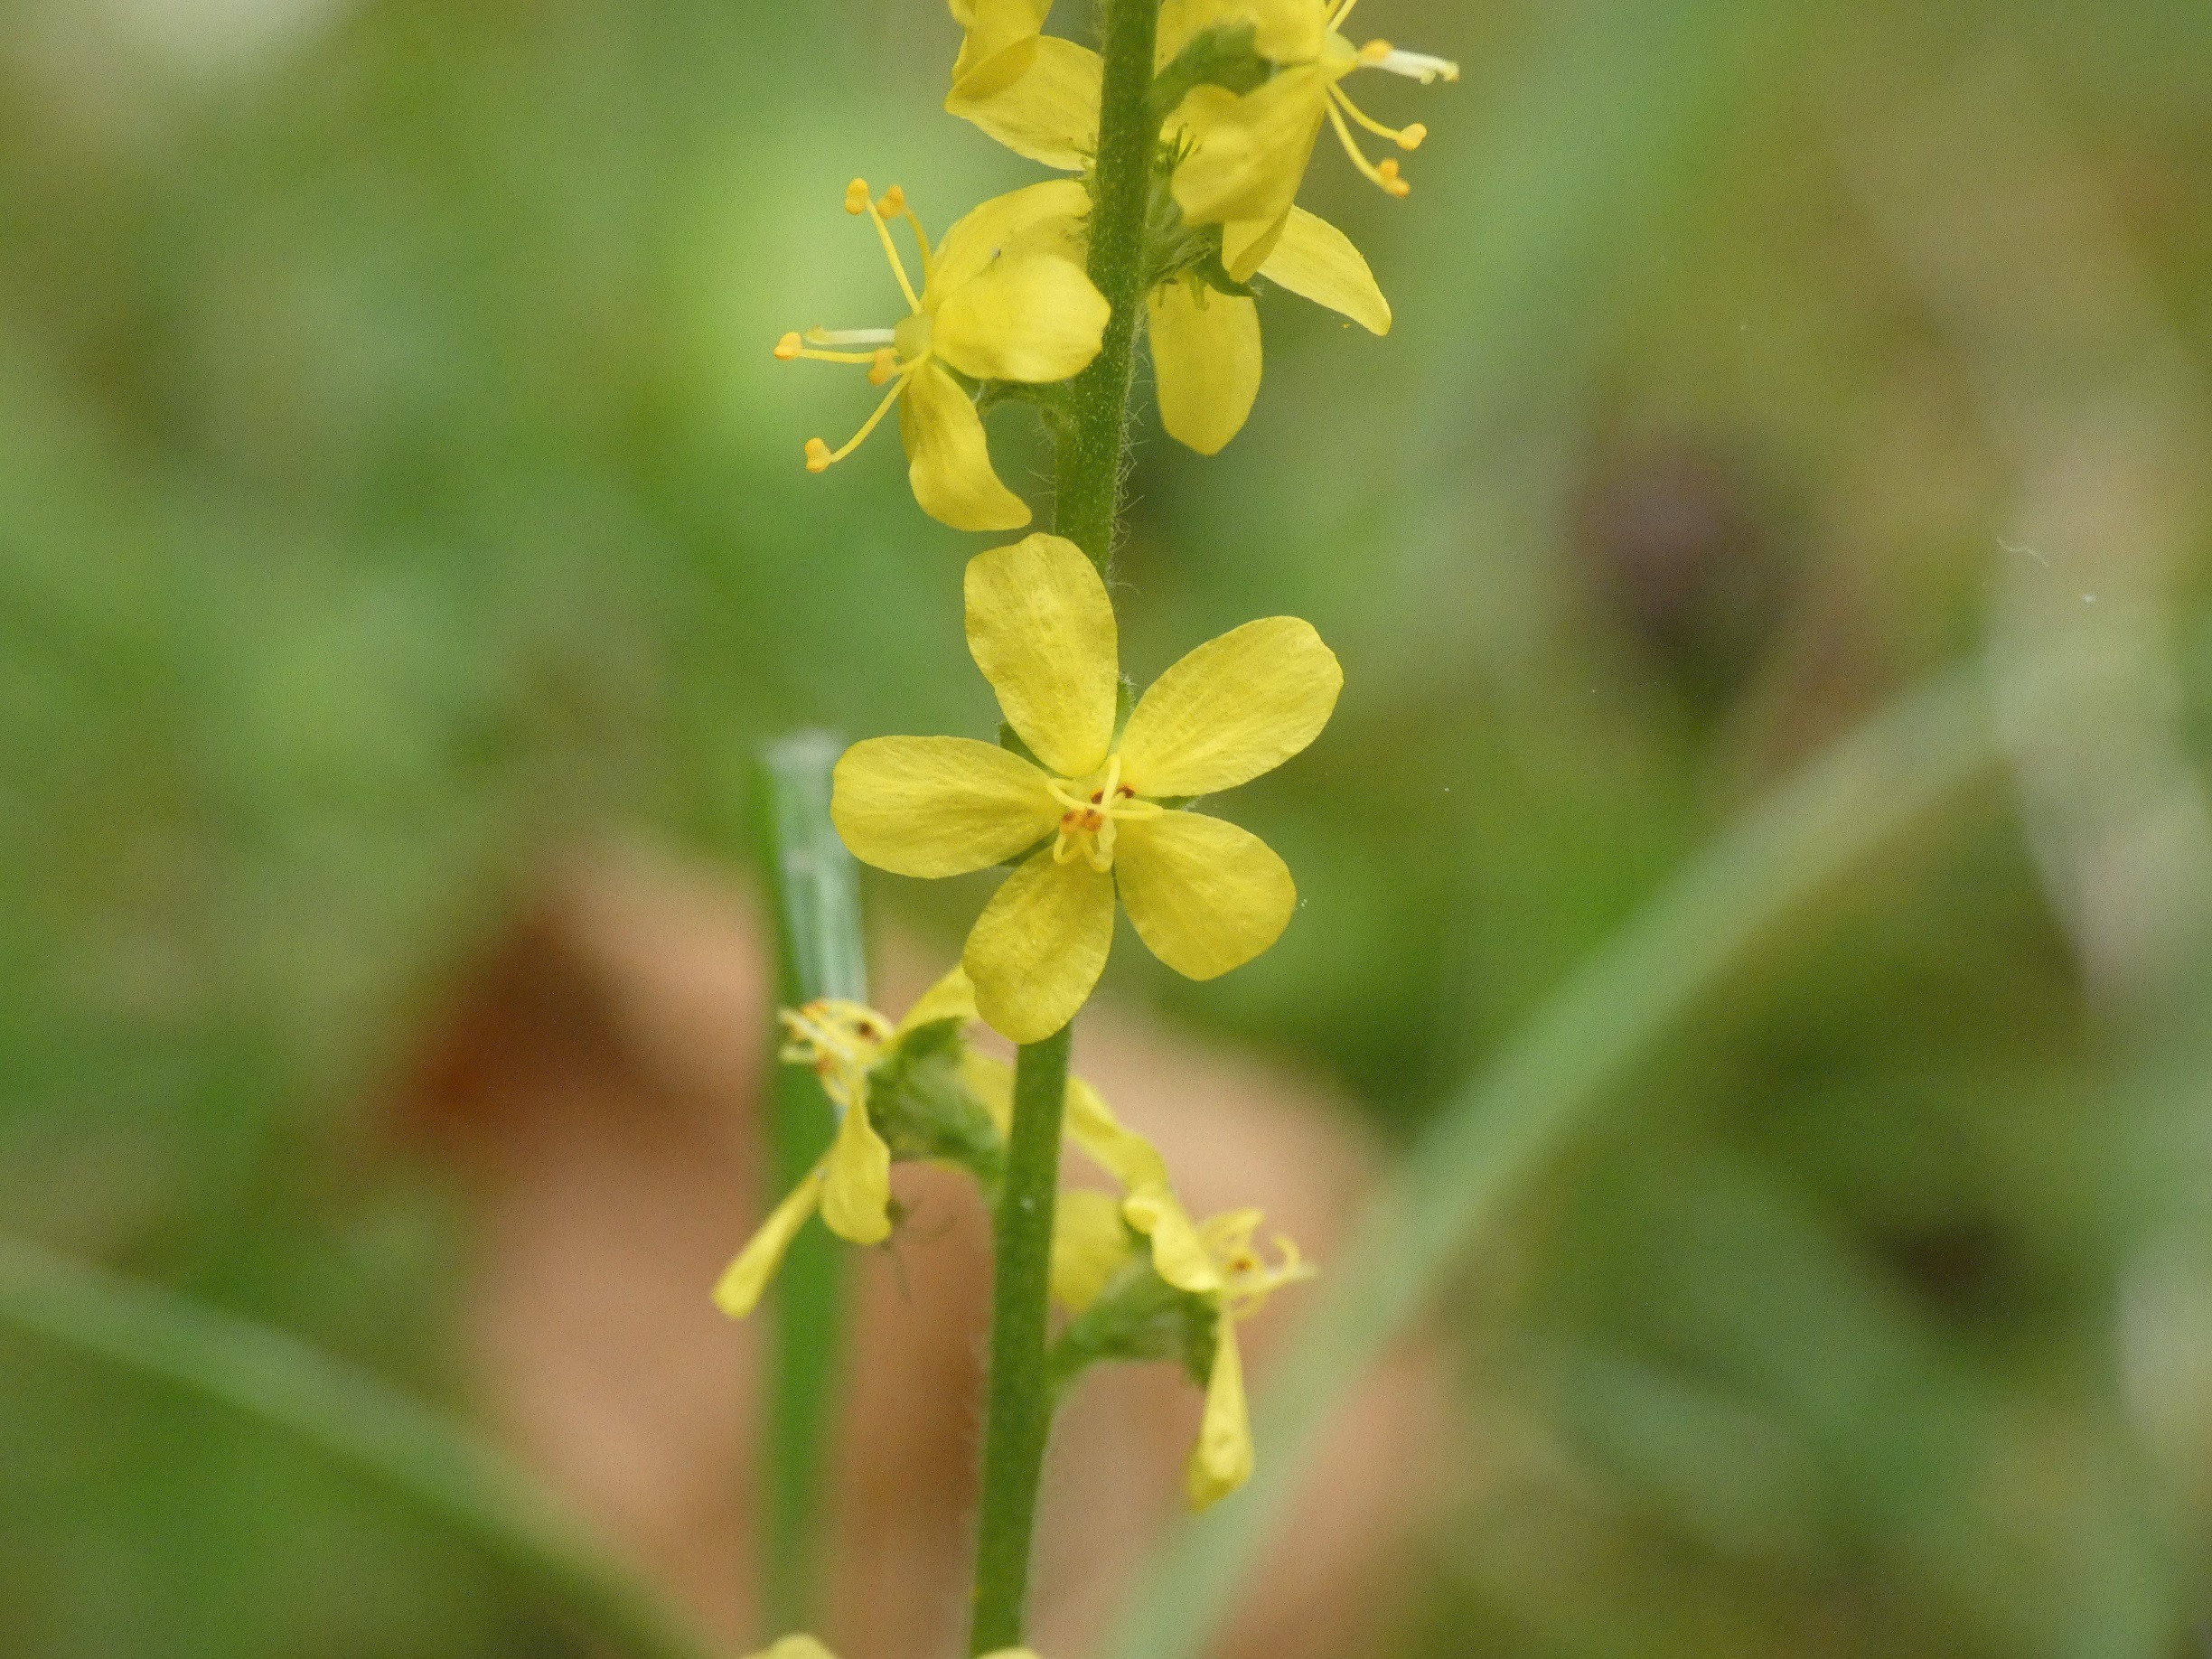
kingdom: Plantae
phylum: Tracheophyta
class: Magnoliopsida
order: Rosales
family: Rosaceae
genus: Agrimonia
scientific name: Agrimonia eupatoria
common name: Almindelig agermåne
